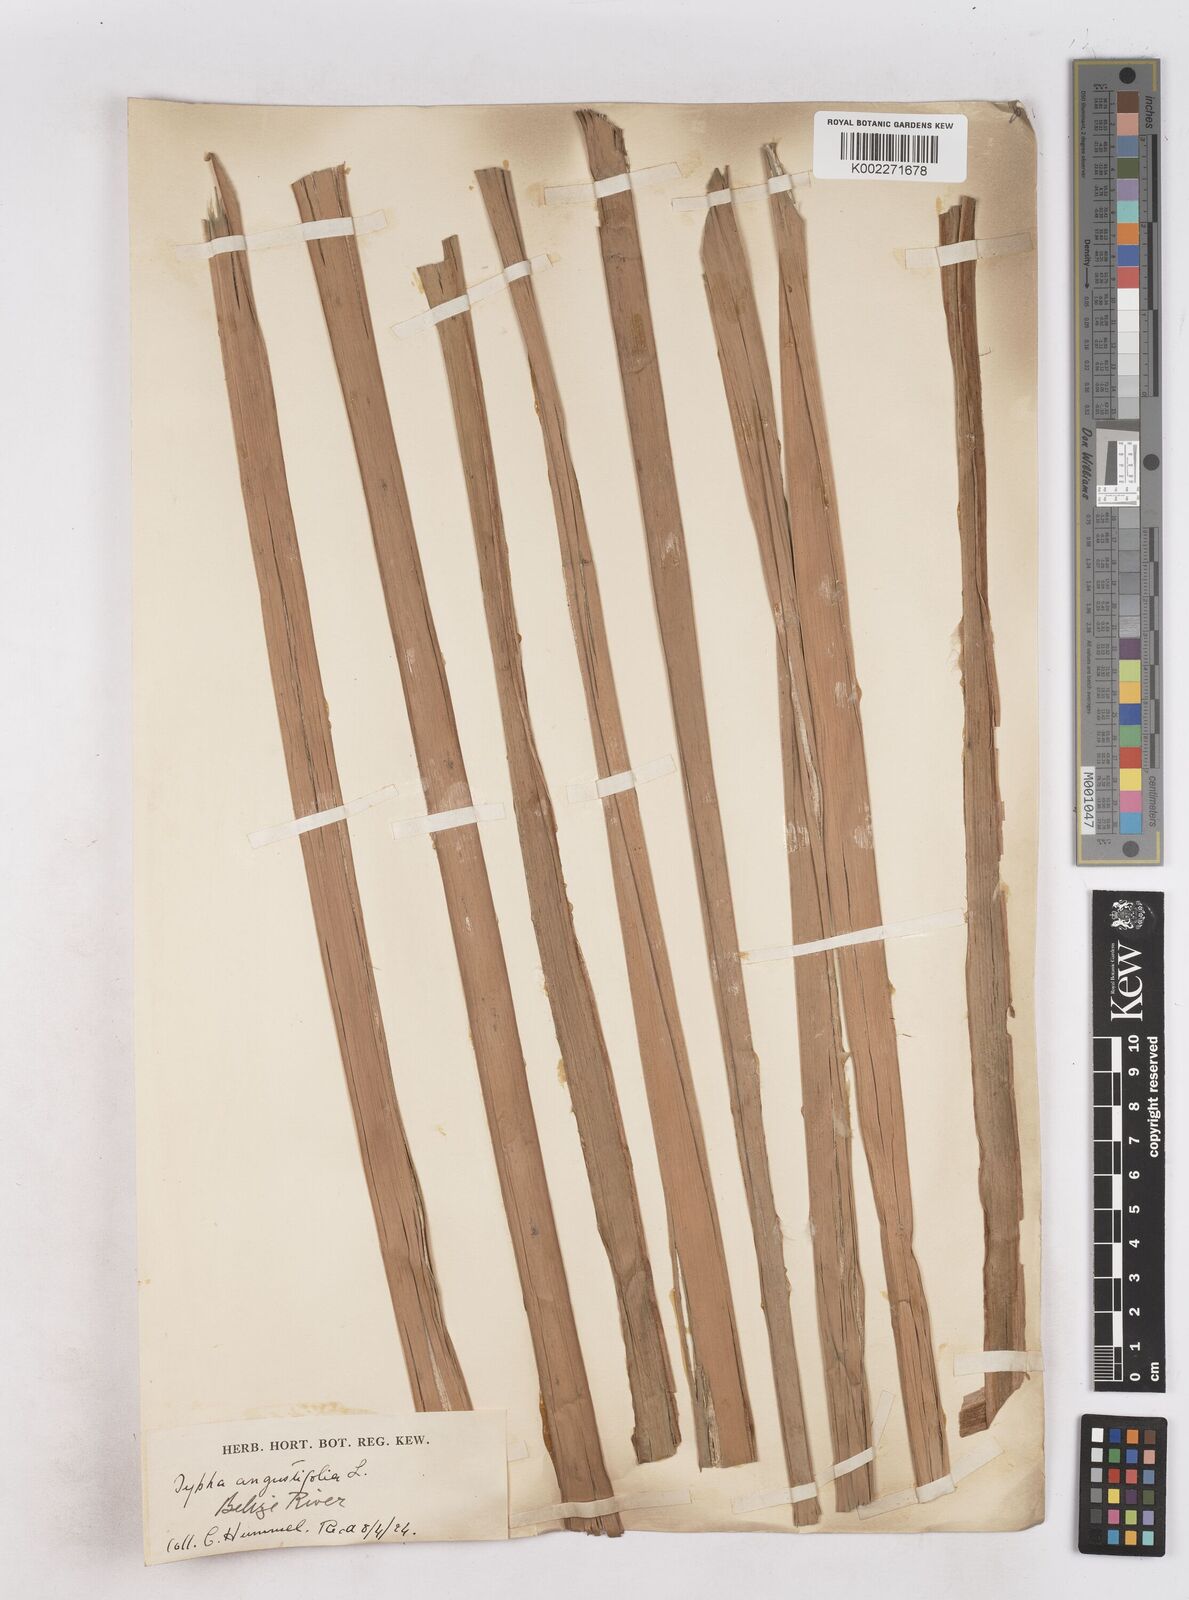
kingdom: Plantae
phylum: Tracheophyta
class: Liliopsida
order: Poales
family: Typhaceae
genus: Typha
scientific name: Typha domingensis
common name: Southern cattail
